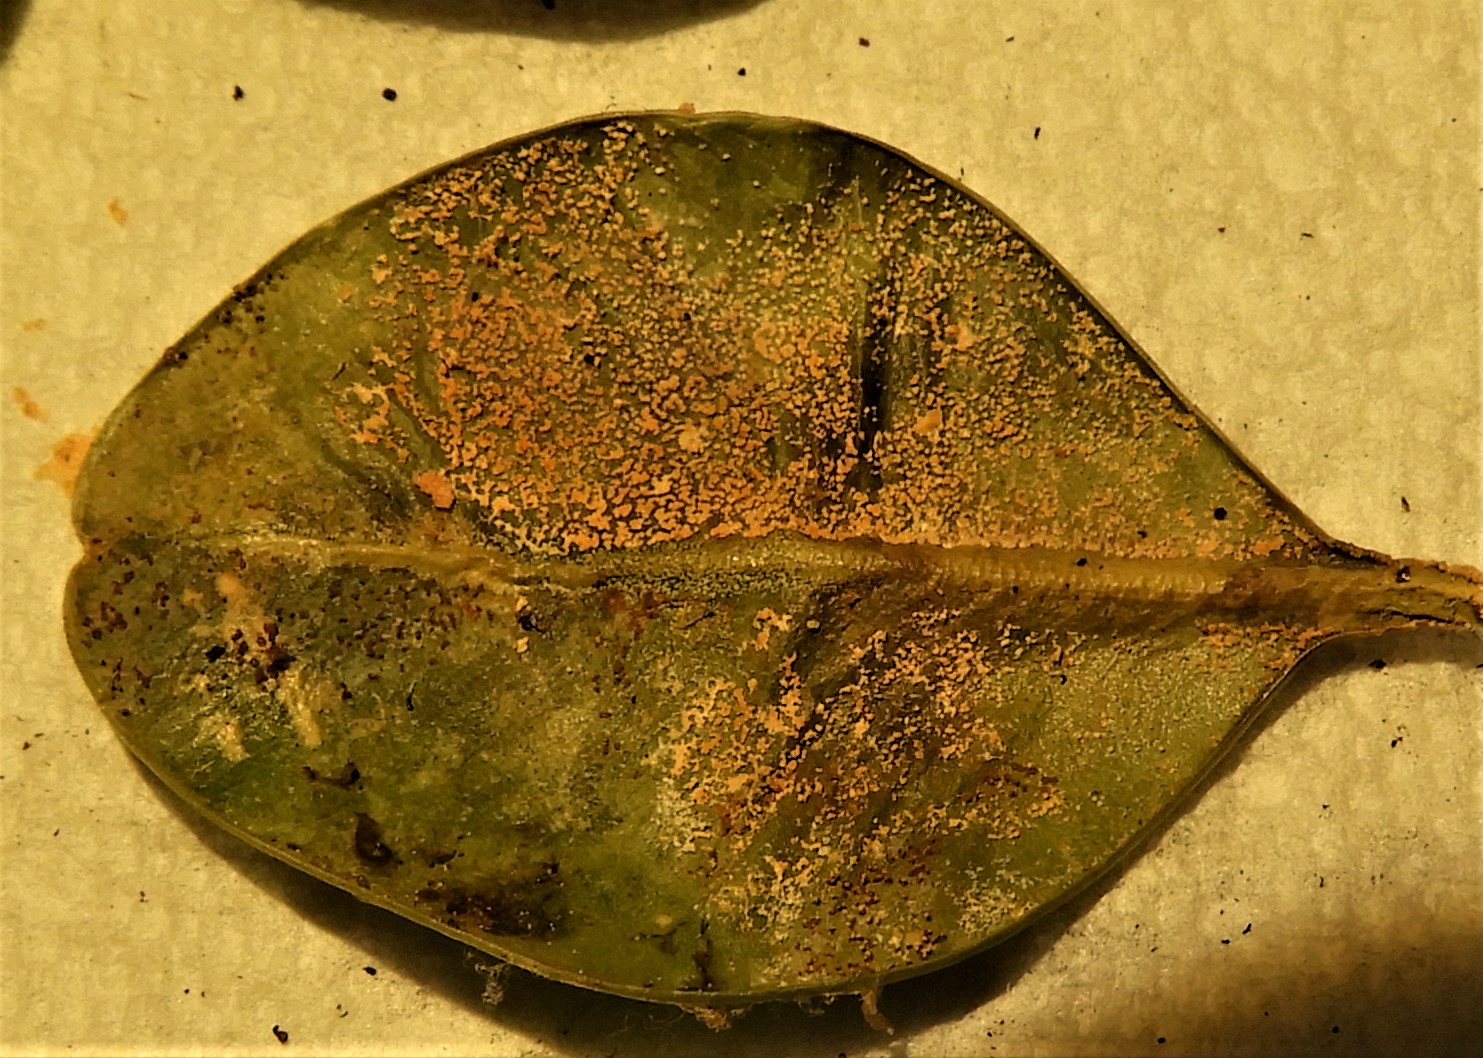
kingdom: Fungi
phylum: Ascomycota
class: Sordariomycetes
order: Hypocreales
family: Nectriaceae
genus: Pseudonectria
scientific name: Pseudonectria buxi
